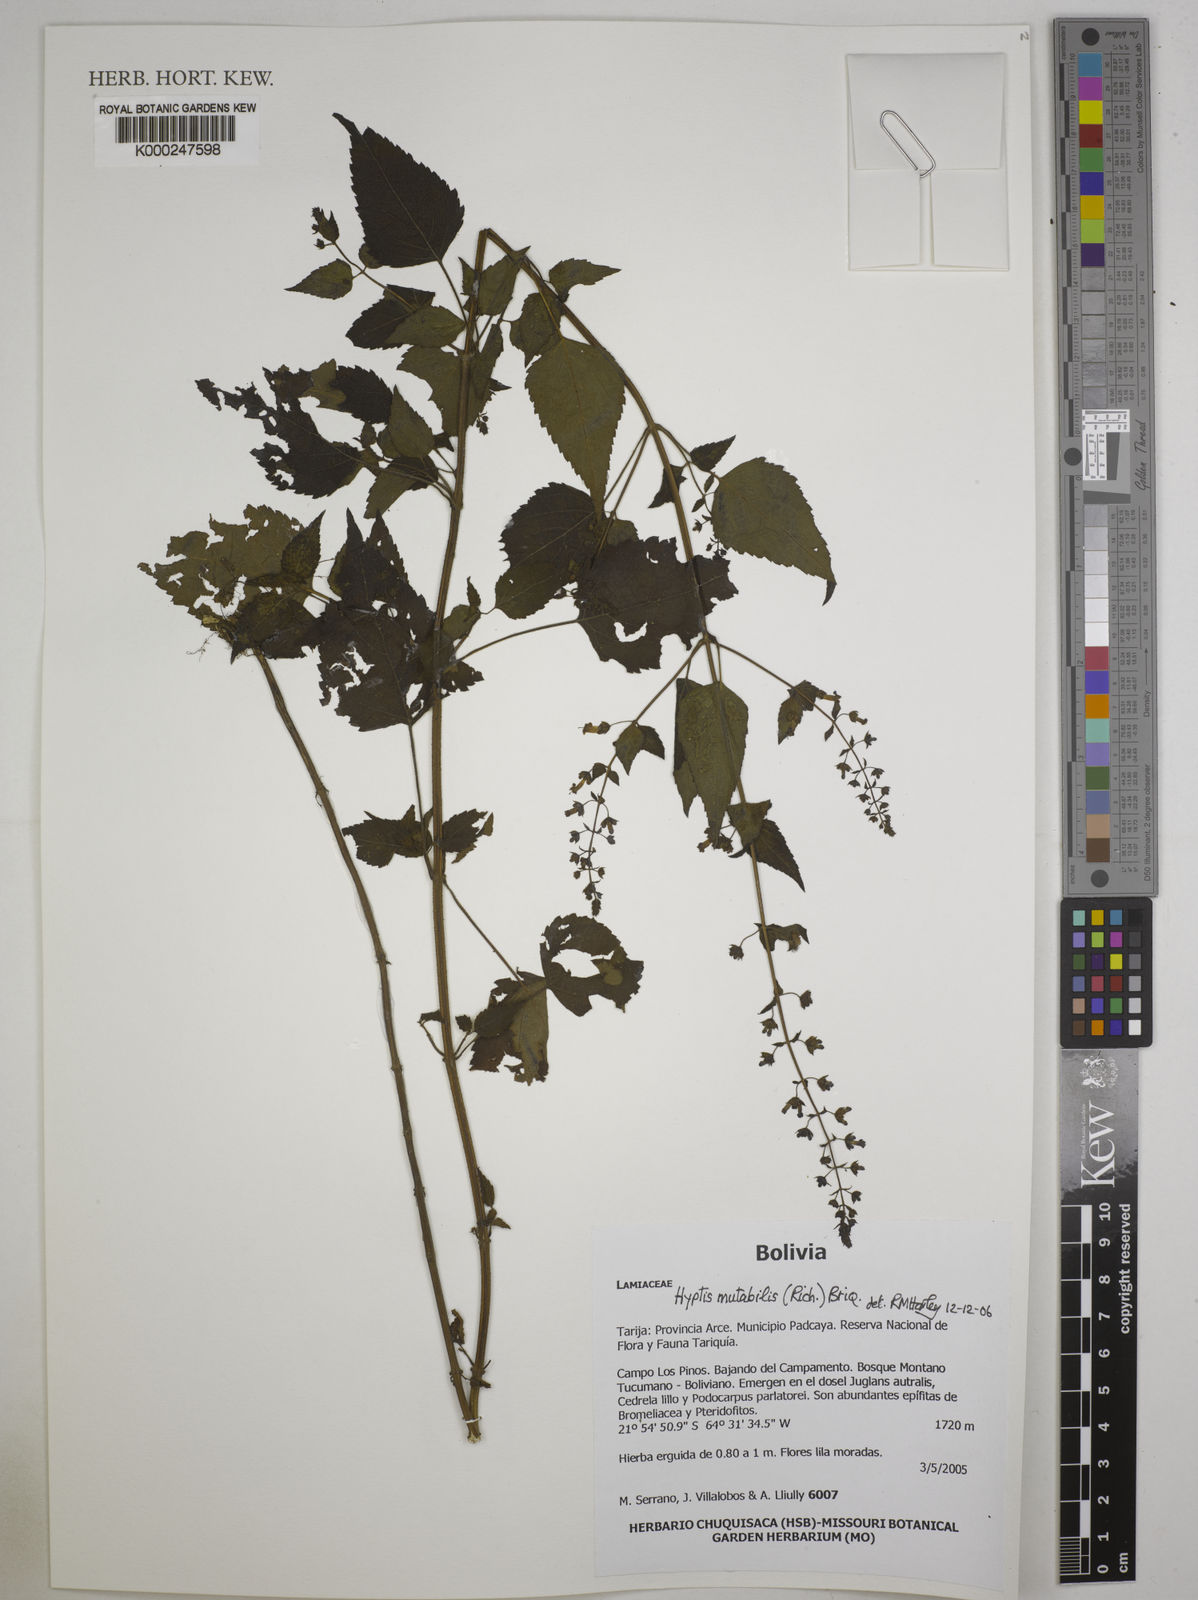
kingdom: Plantae
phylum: Tracheophyta
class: Magnoliopsida
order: Lamiales
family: Lamiaceae
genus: Cantinoa
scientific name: Cantinoa mutabilis
